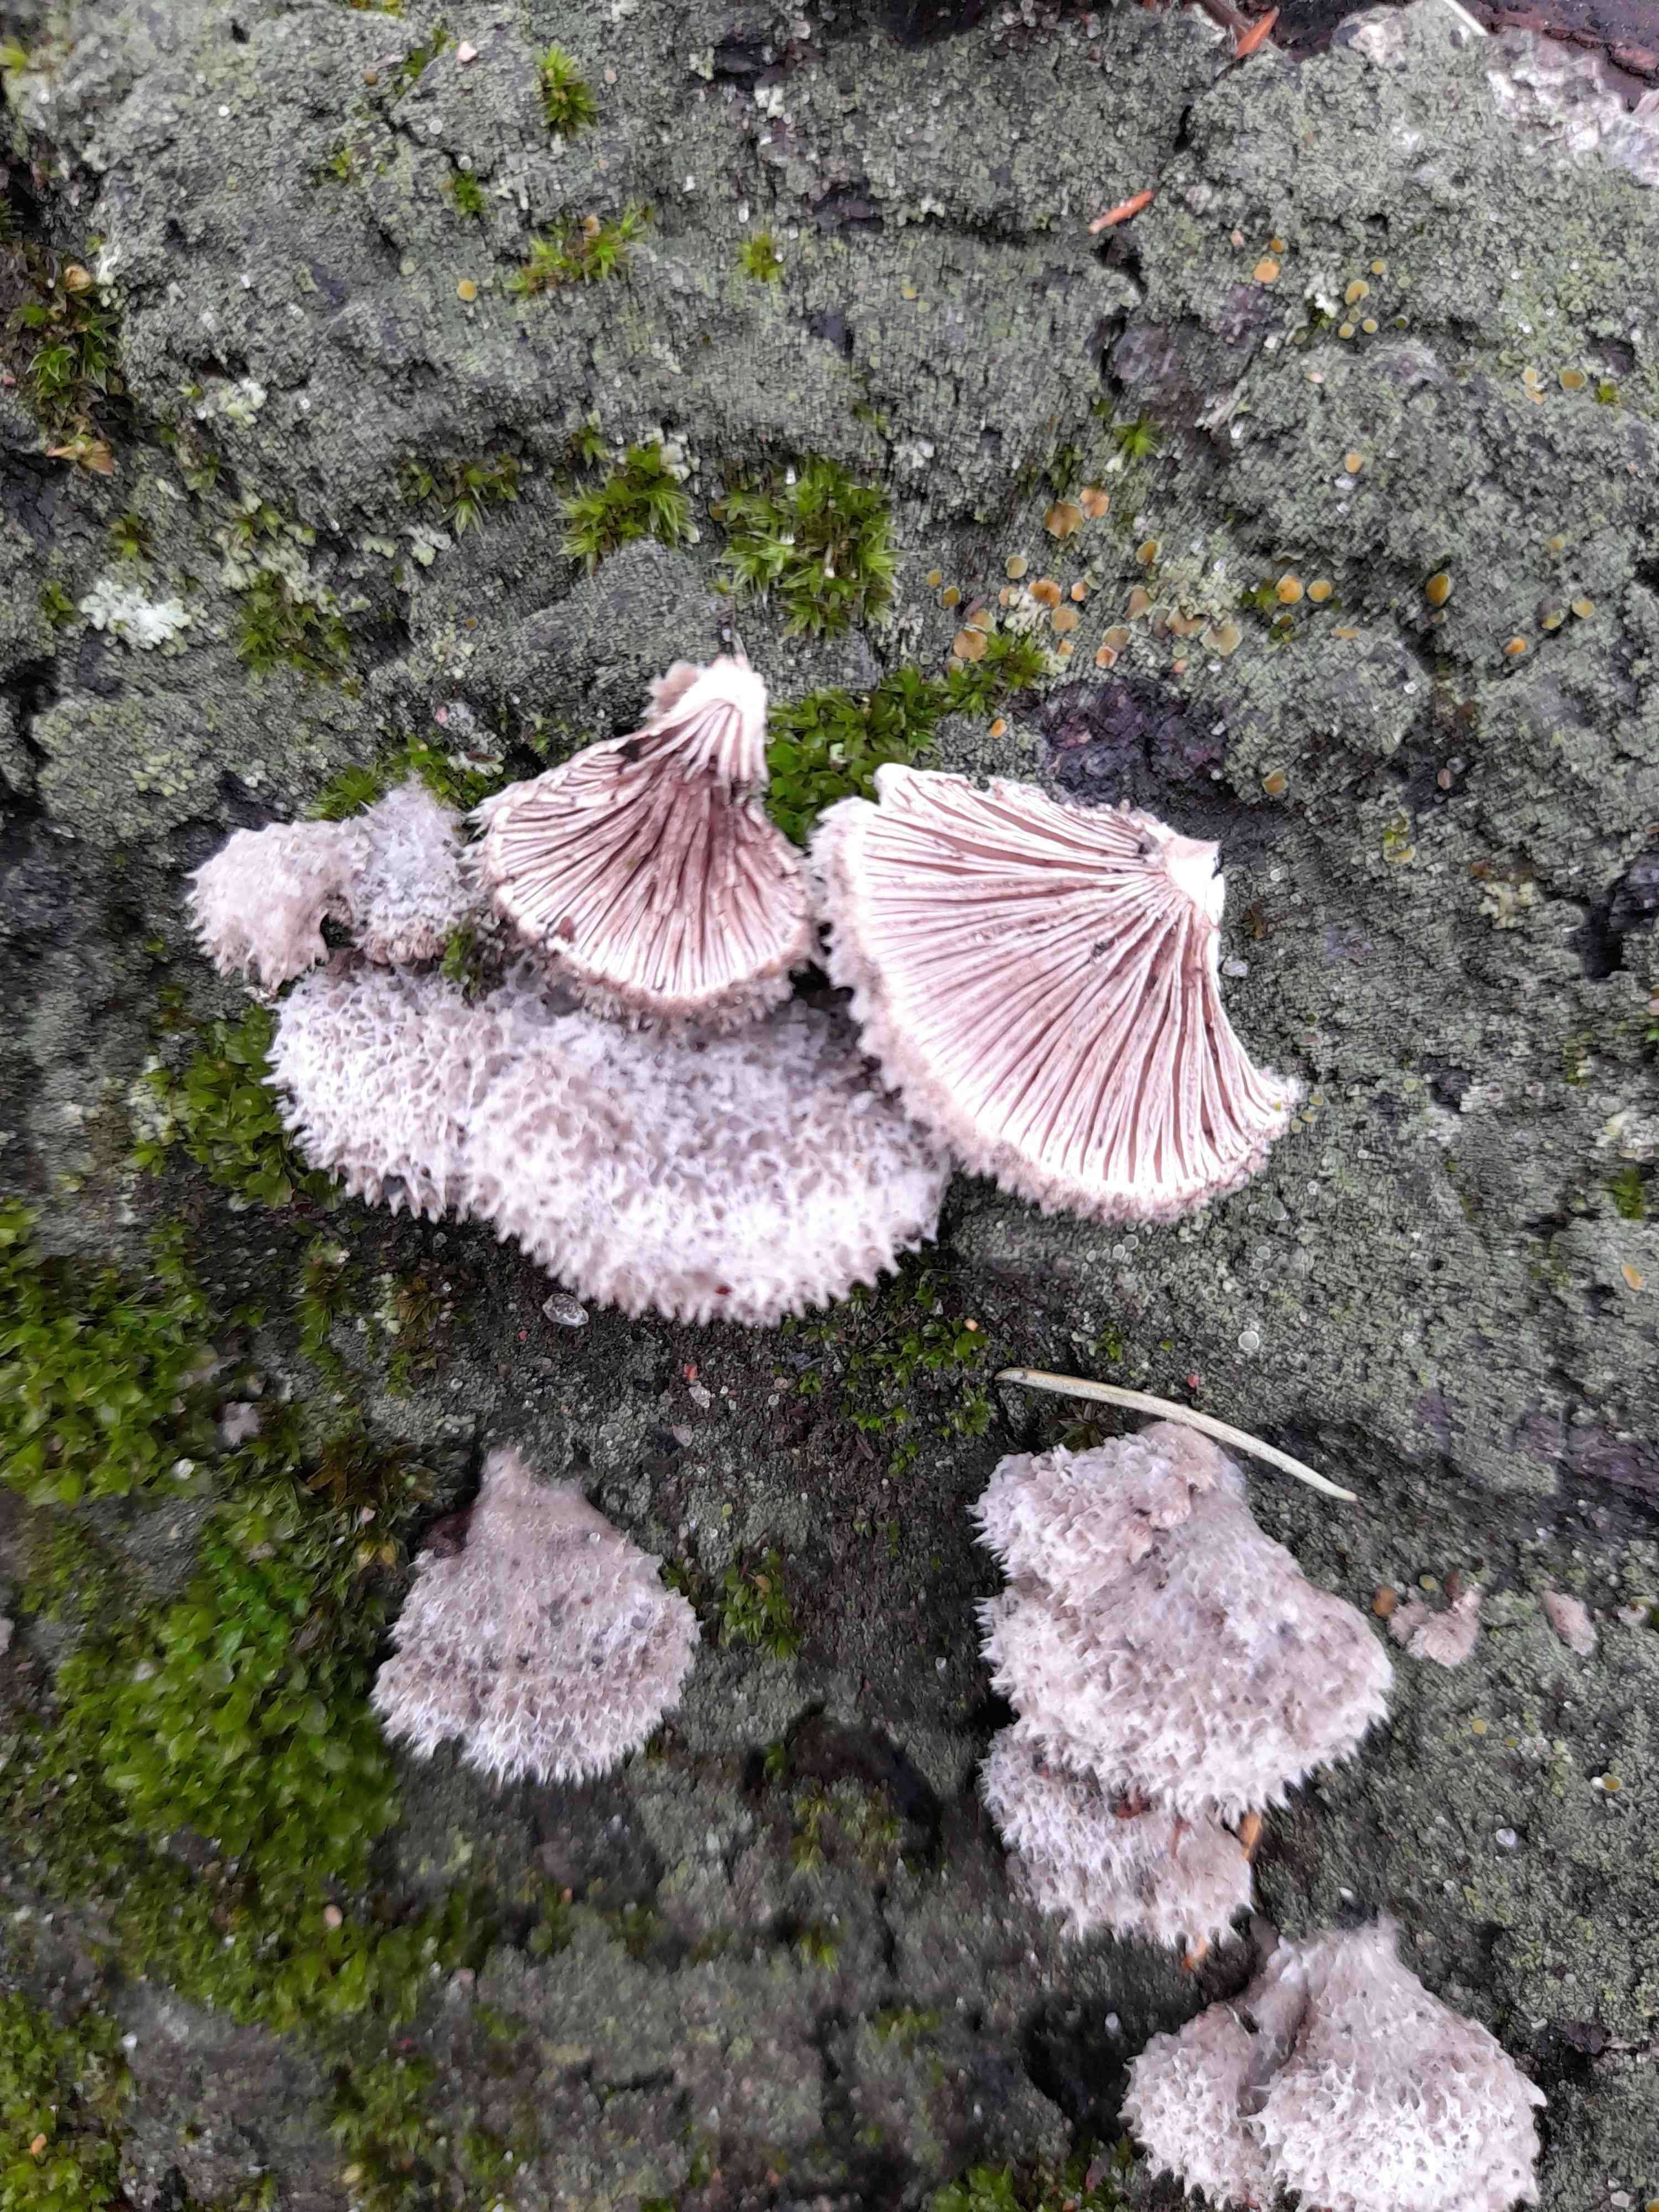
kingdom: Fungi
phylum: Basidiomycota
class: Agaricomycetes
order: Agaricales
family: Schizophyllaceae
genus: Schizophyllum
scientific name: Schizophyllum commune
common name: kløvblad
